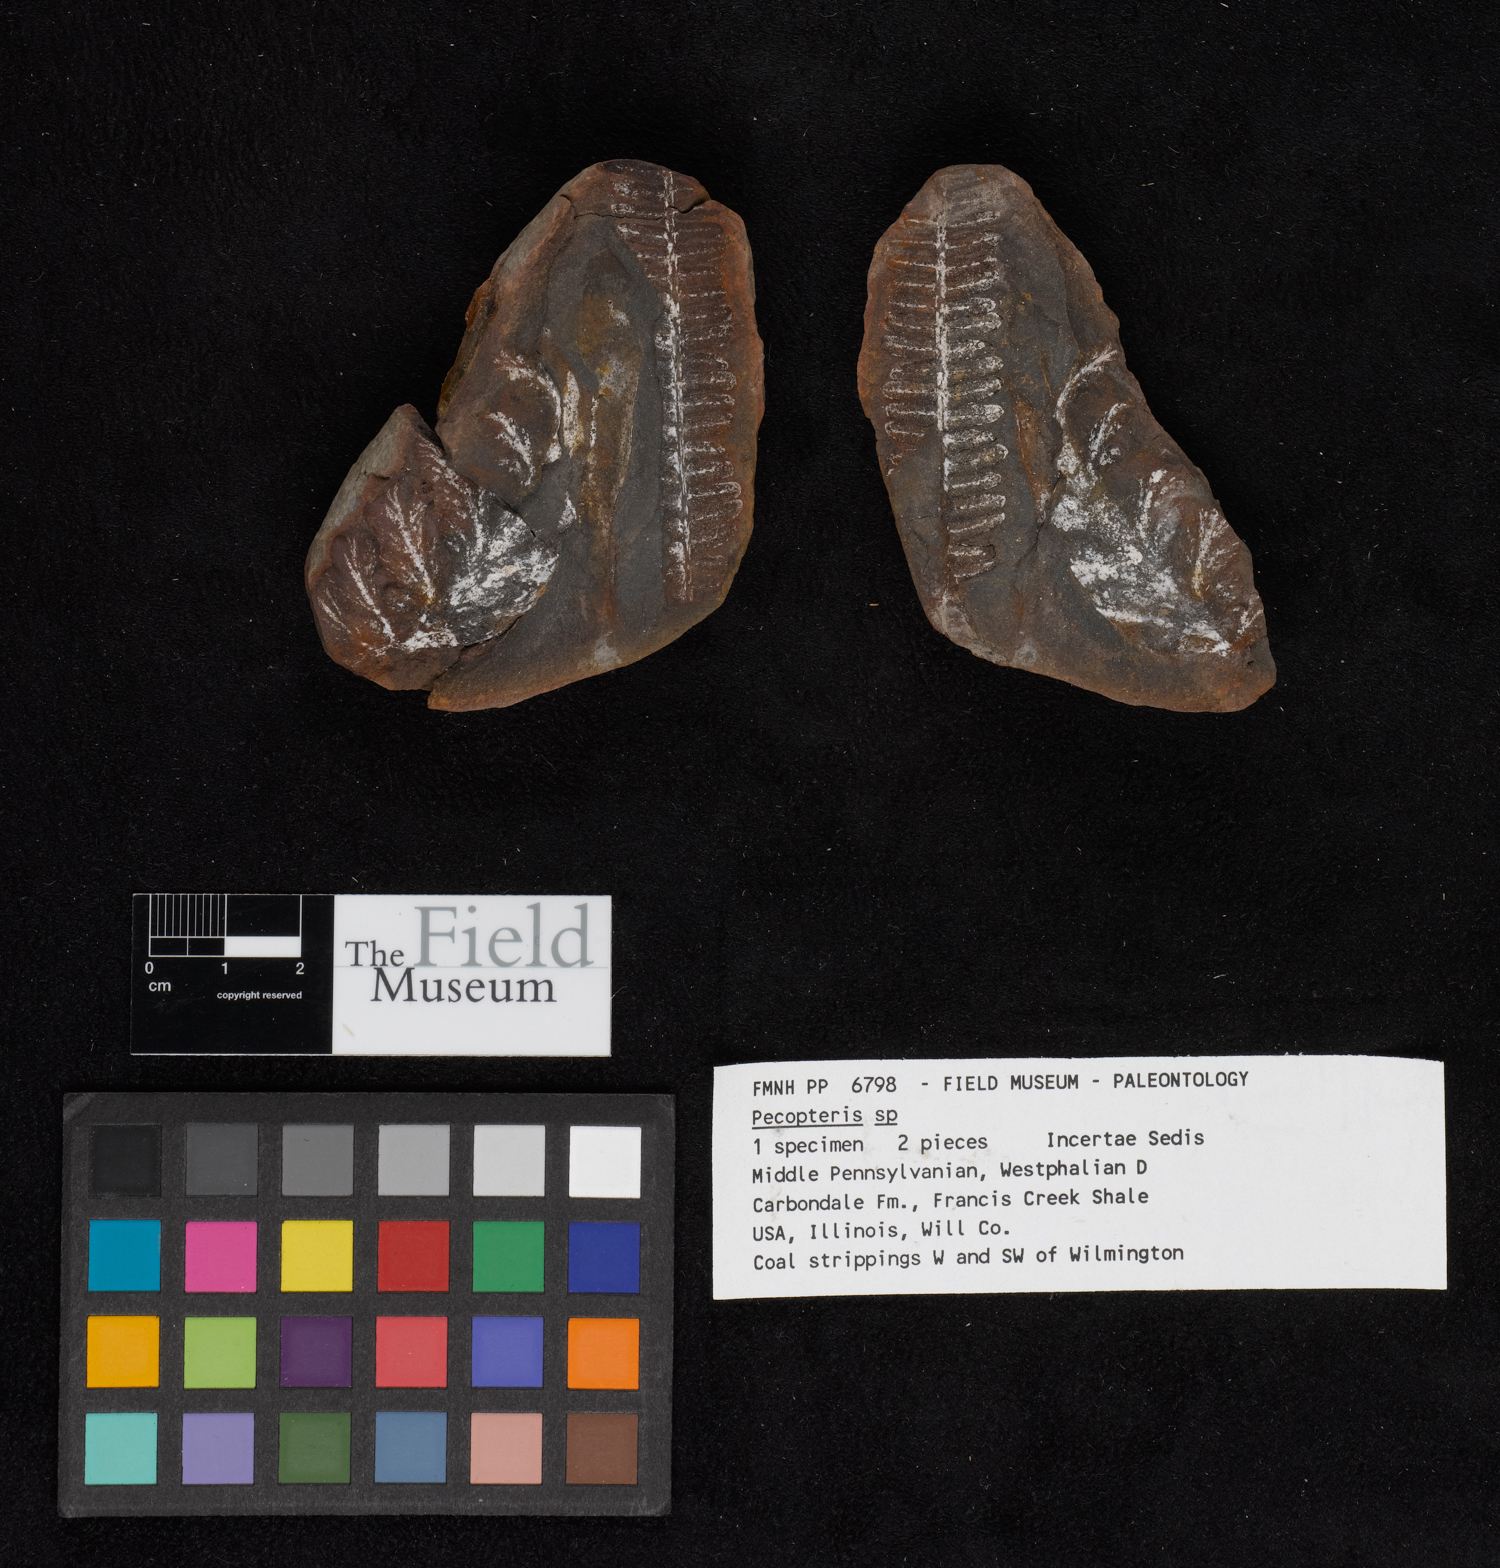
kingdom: Plantae
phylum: Tracheophyta
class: Polypodiopsida
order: Marattiales
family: Asterothecaceae
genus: Pecopteris
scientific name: Pecopteris
